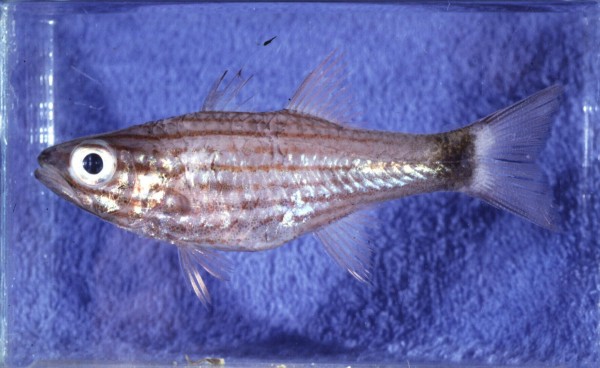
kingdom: Animalia
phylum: Chordata
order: Perciformes
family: Apogonidae
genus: Cheilodipterus
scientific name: Cheilodipterus macrodon
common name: Eight-lined cardinalfish
